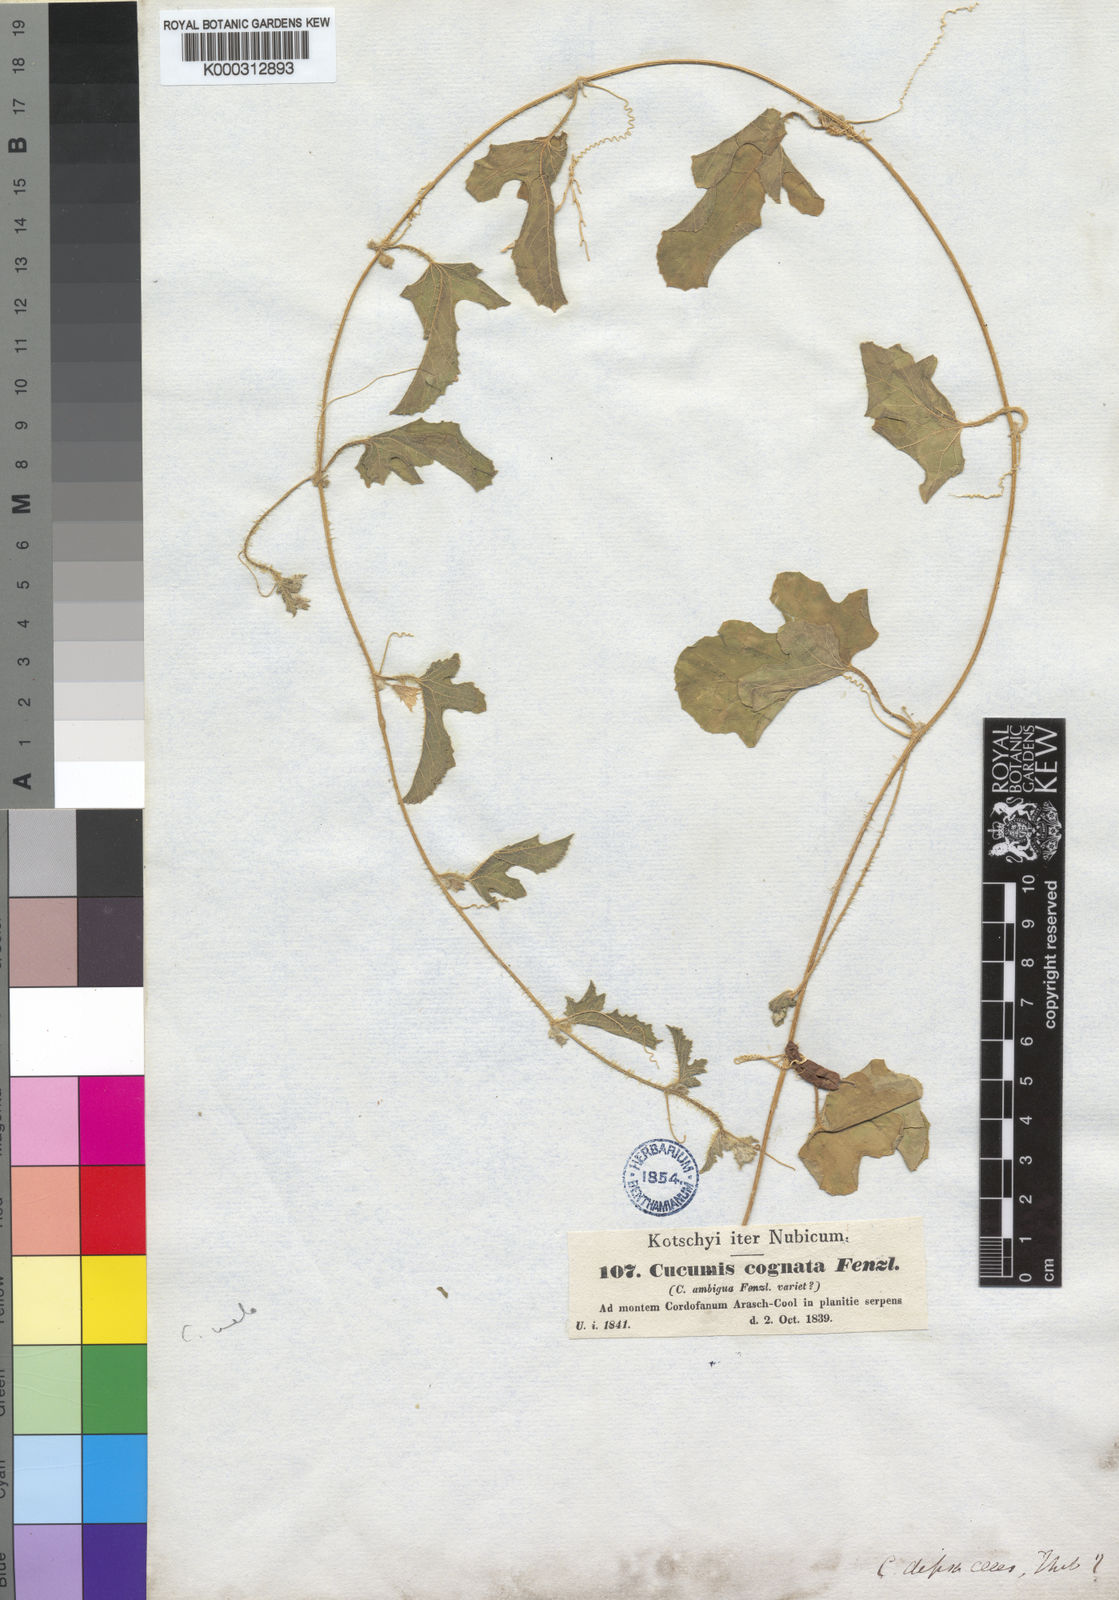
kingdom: Plantae
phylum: Tracheophyta
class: Magnoliopsida
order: Cucurbitales
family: Cucurbitaceae
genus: Cucumis
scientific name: Cucumis melo
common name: Melon
